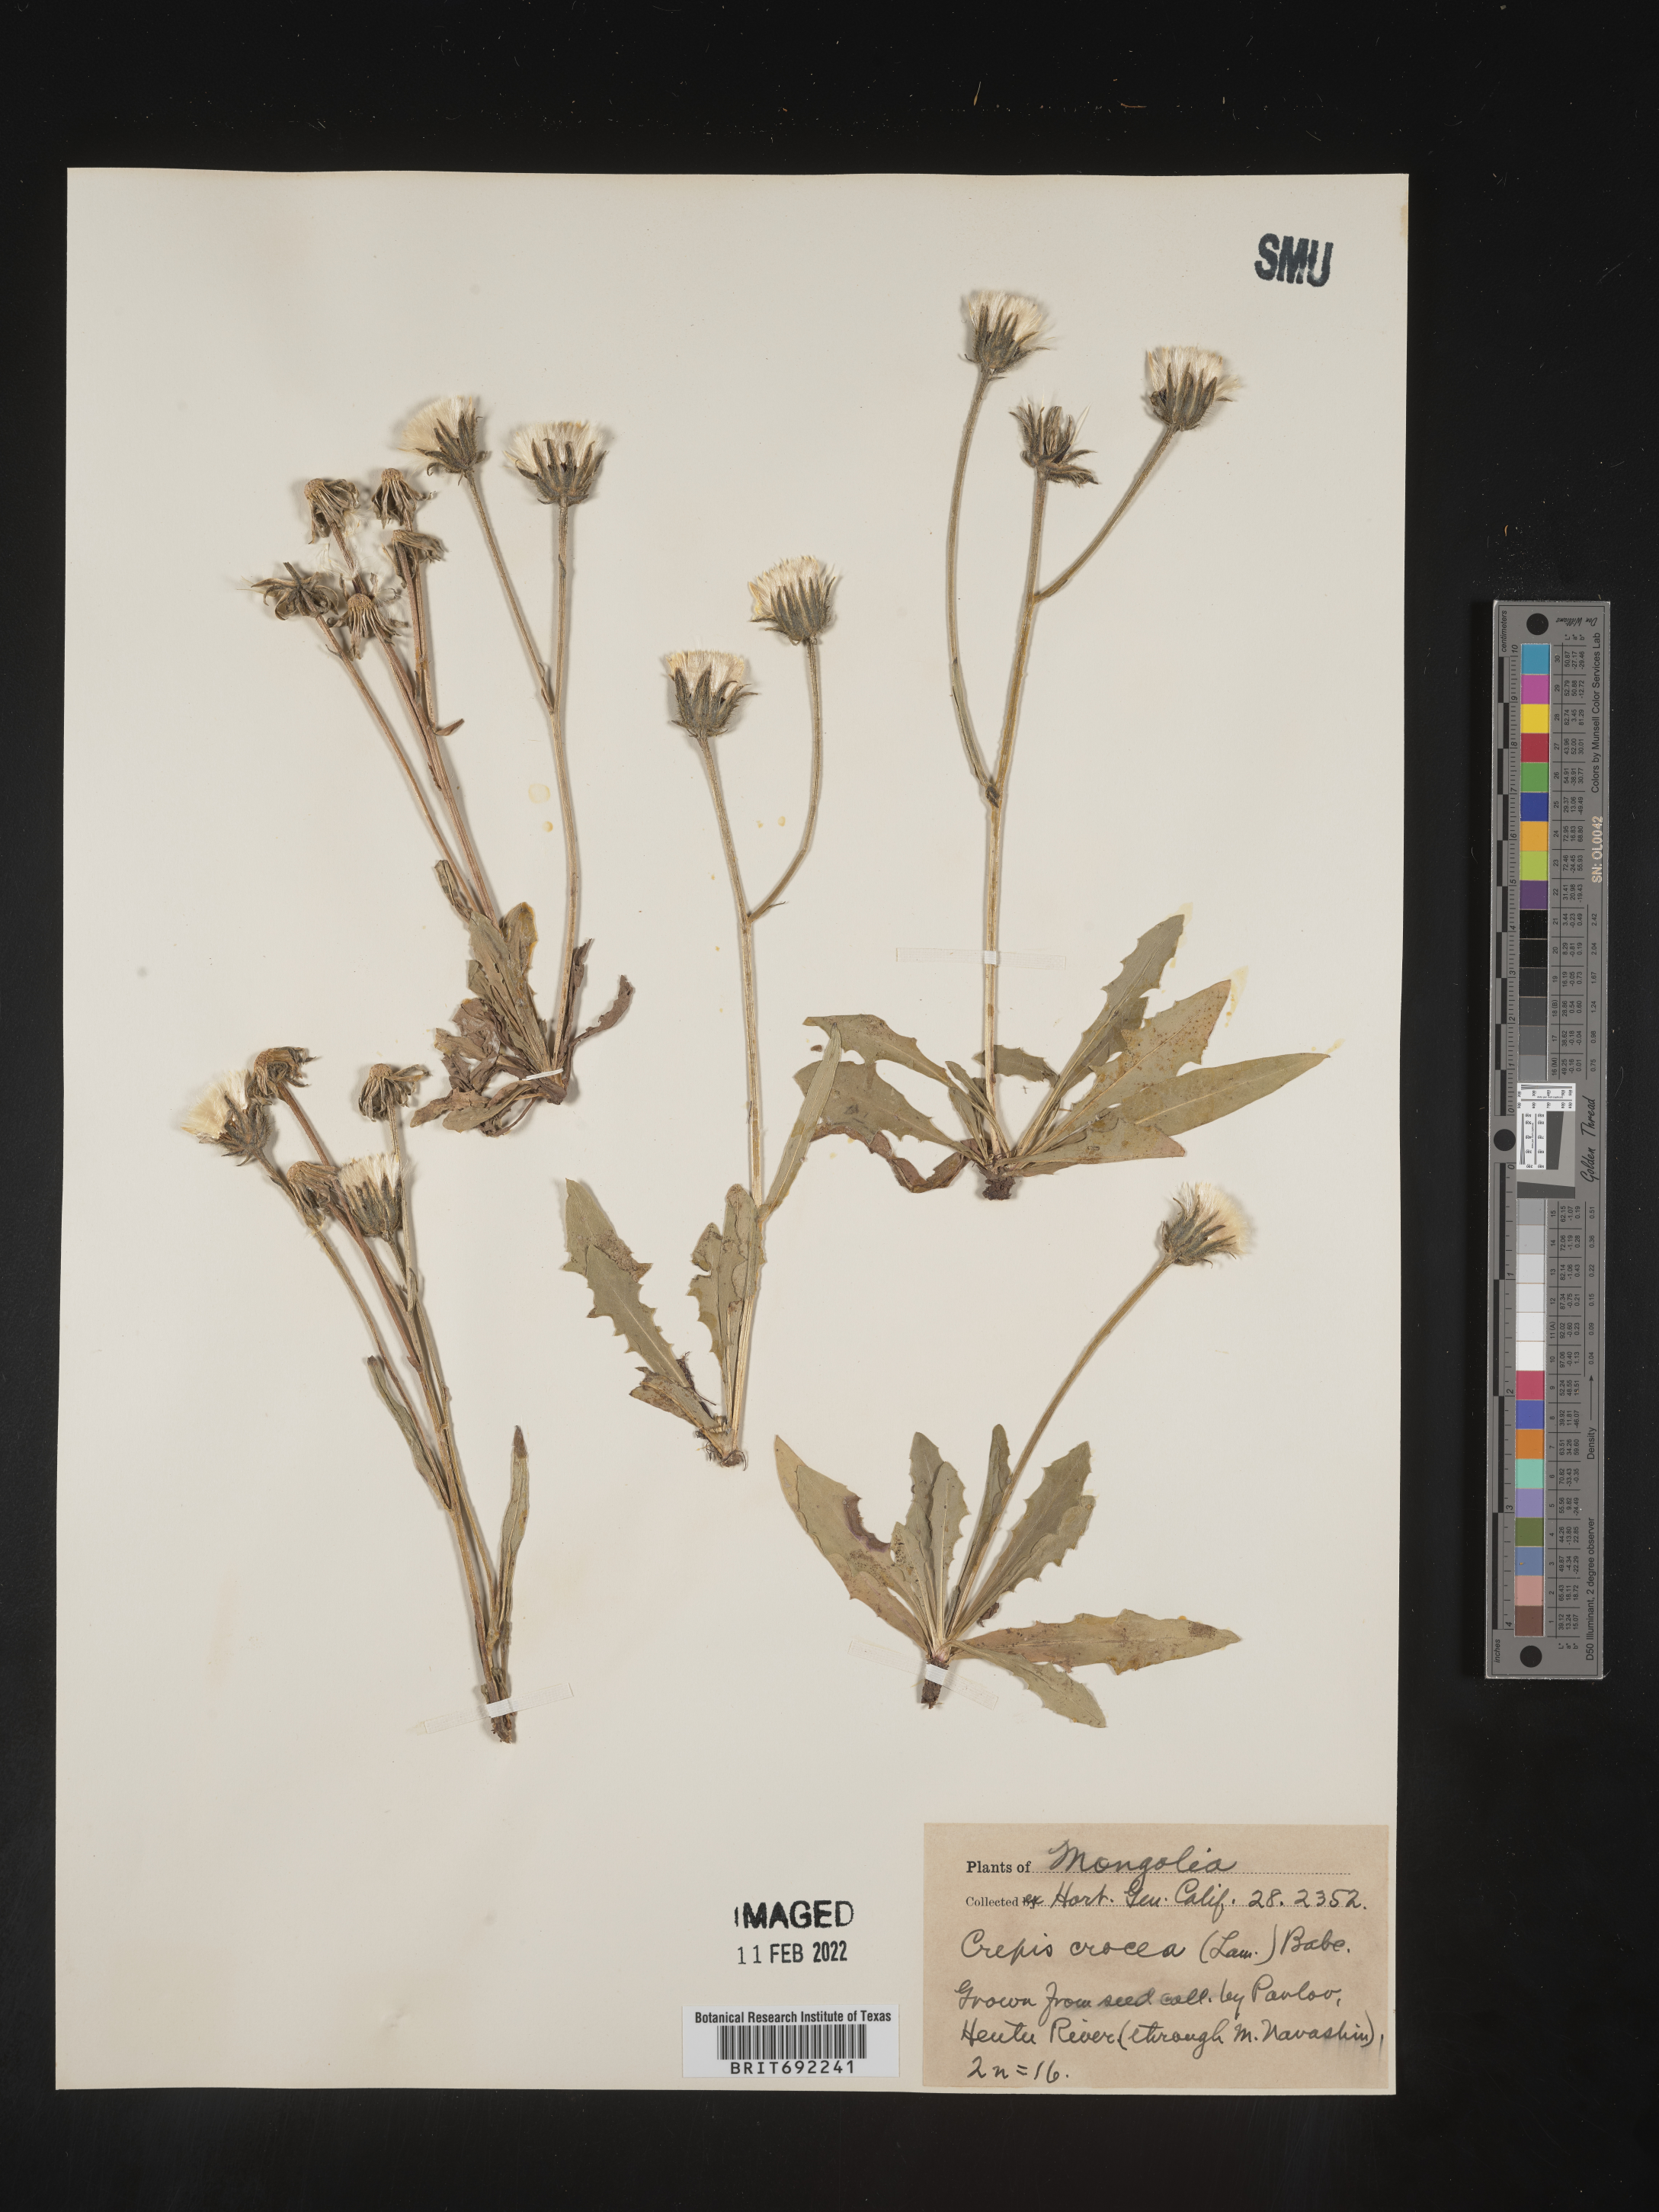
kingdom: Plantae
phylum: Tracheophyta
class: Magnoliopsida
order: Asterales
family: Asteraceae
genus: Critonia
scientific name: Critonia
